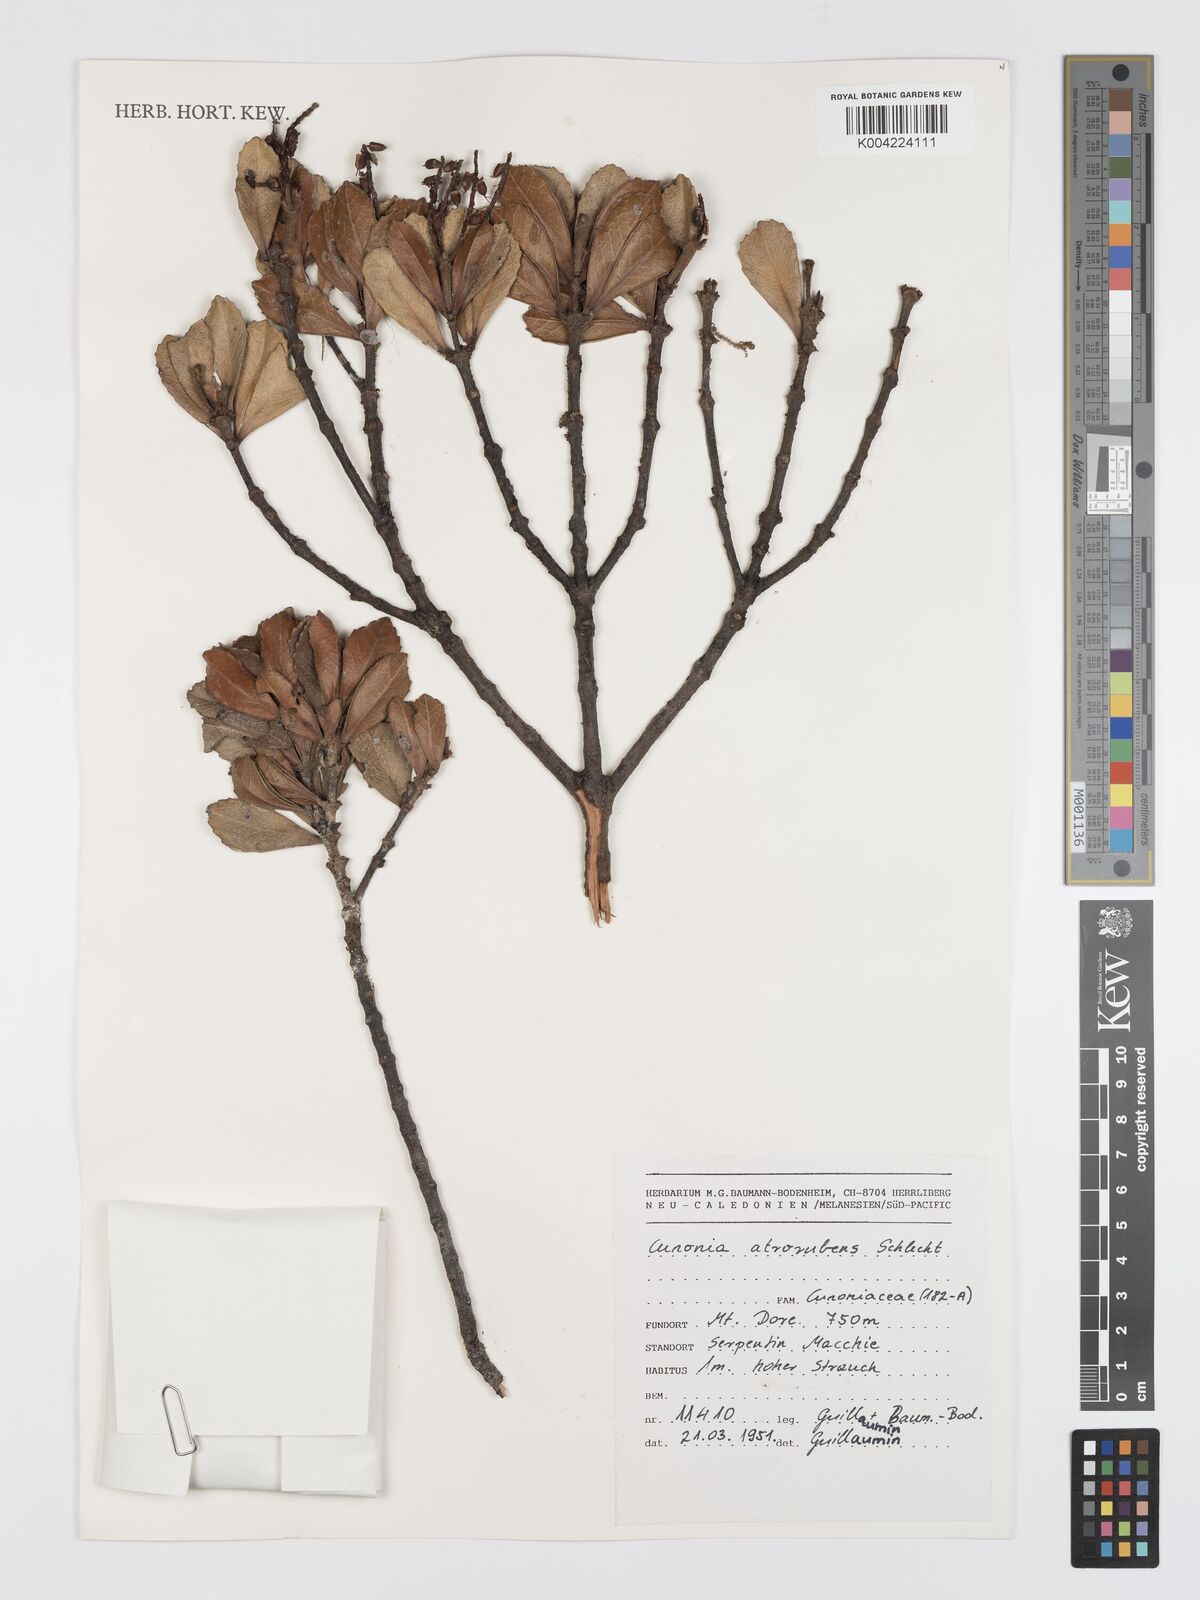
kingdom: Plantae
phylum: Tracheophyta
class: Magnoliopsida
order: Oxalidales
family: Cunoniaceae
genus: Cunonia
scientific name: Cunonia atrorubens
